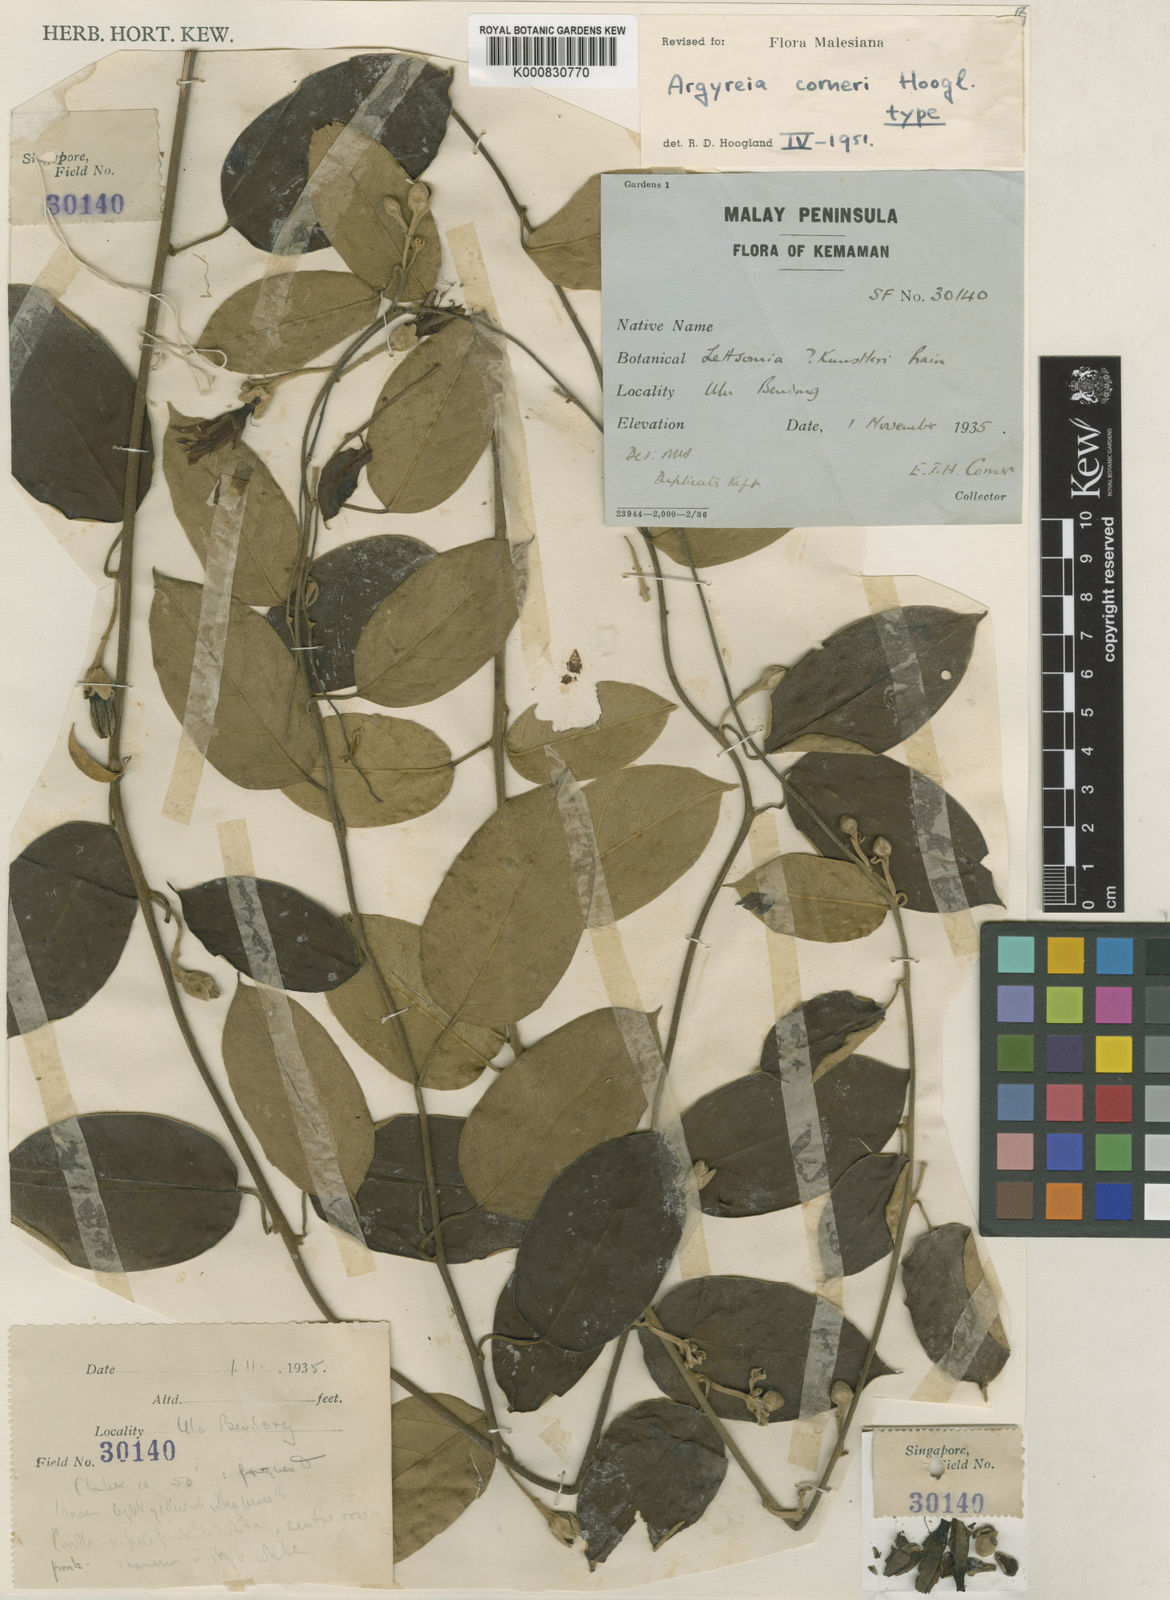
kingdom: Plantae
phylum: Tracheophyta
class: Magnoliopsida
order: Solanales
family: Convolvulaceae
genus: Argyreia
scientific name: Argyreia corneri
